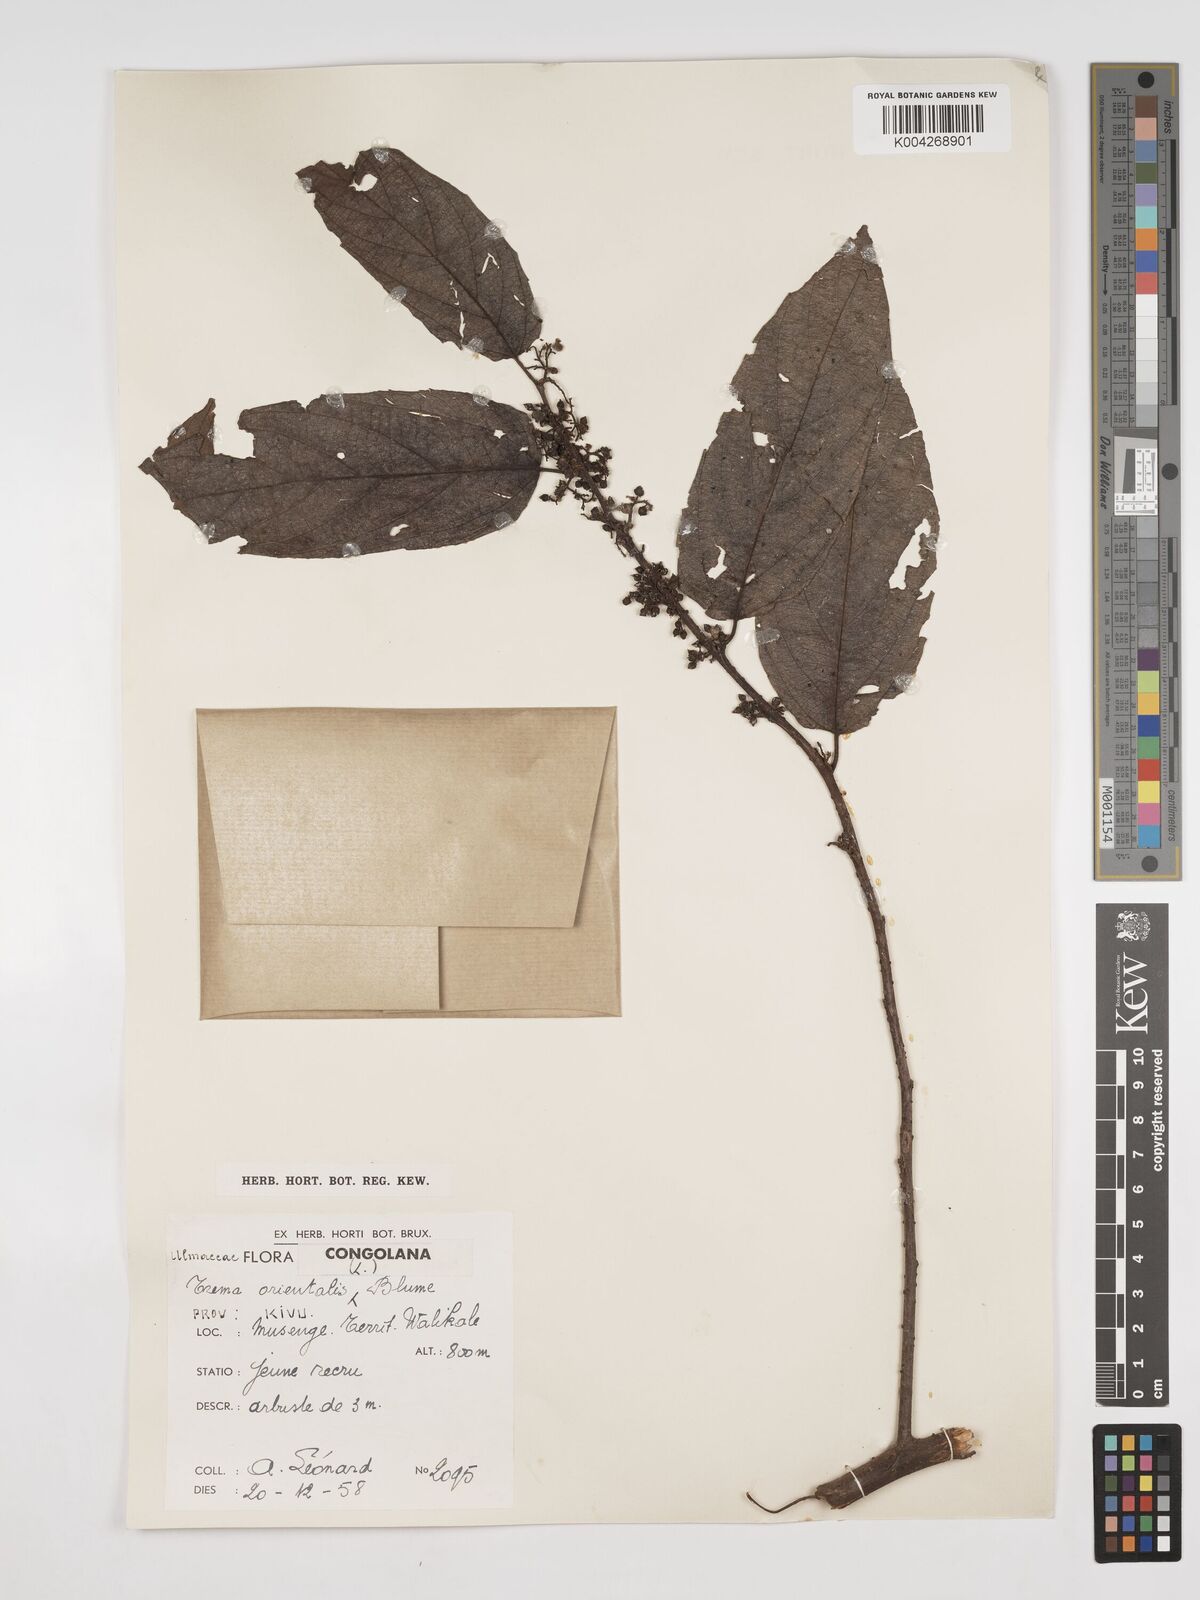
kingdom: Plantae
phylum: Tracheophyta
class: Magnoliopsida
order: Rosales
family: Cannabaceae
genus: Trema
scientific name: Trema orientale
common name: Indian charcoal tree
